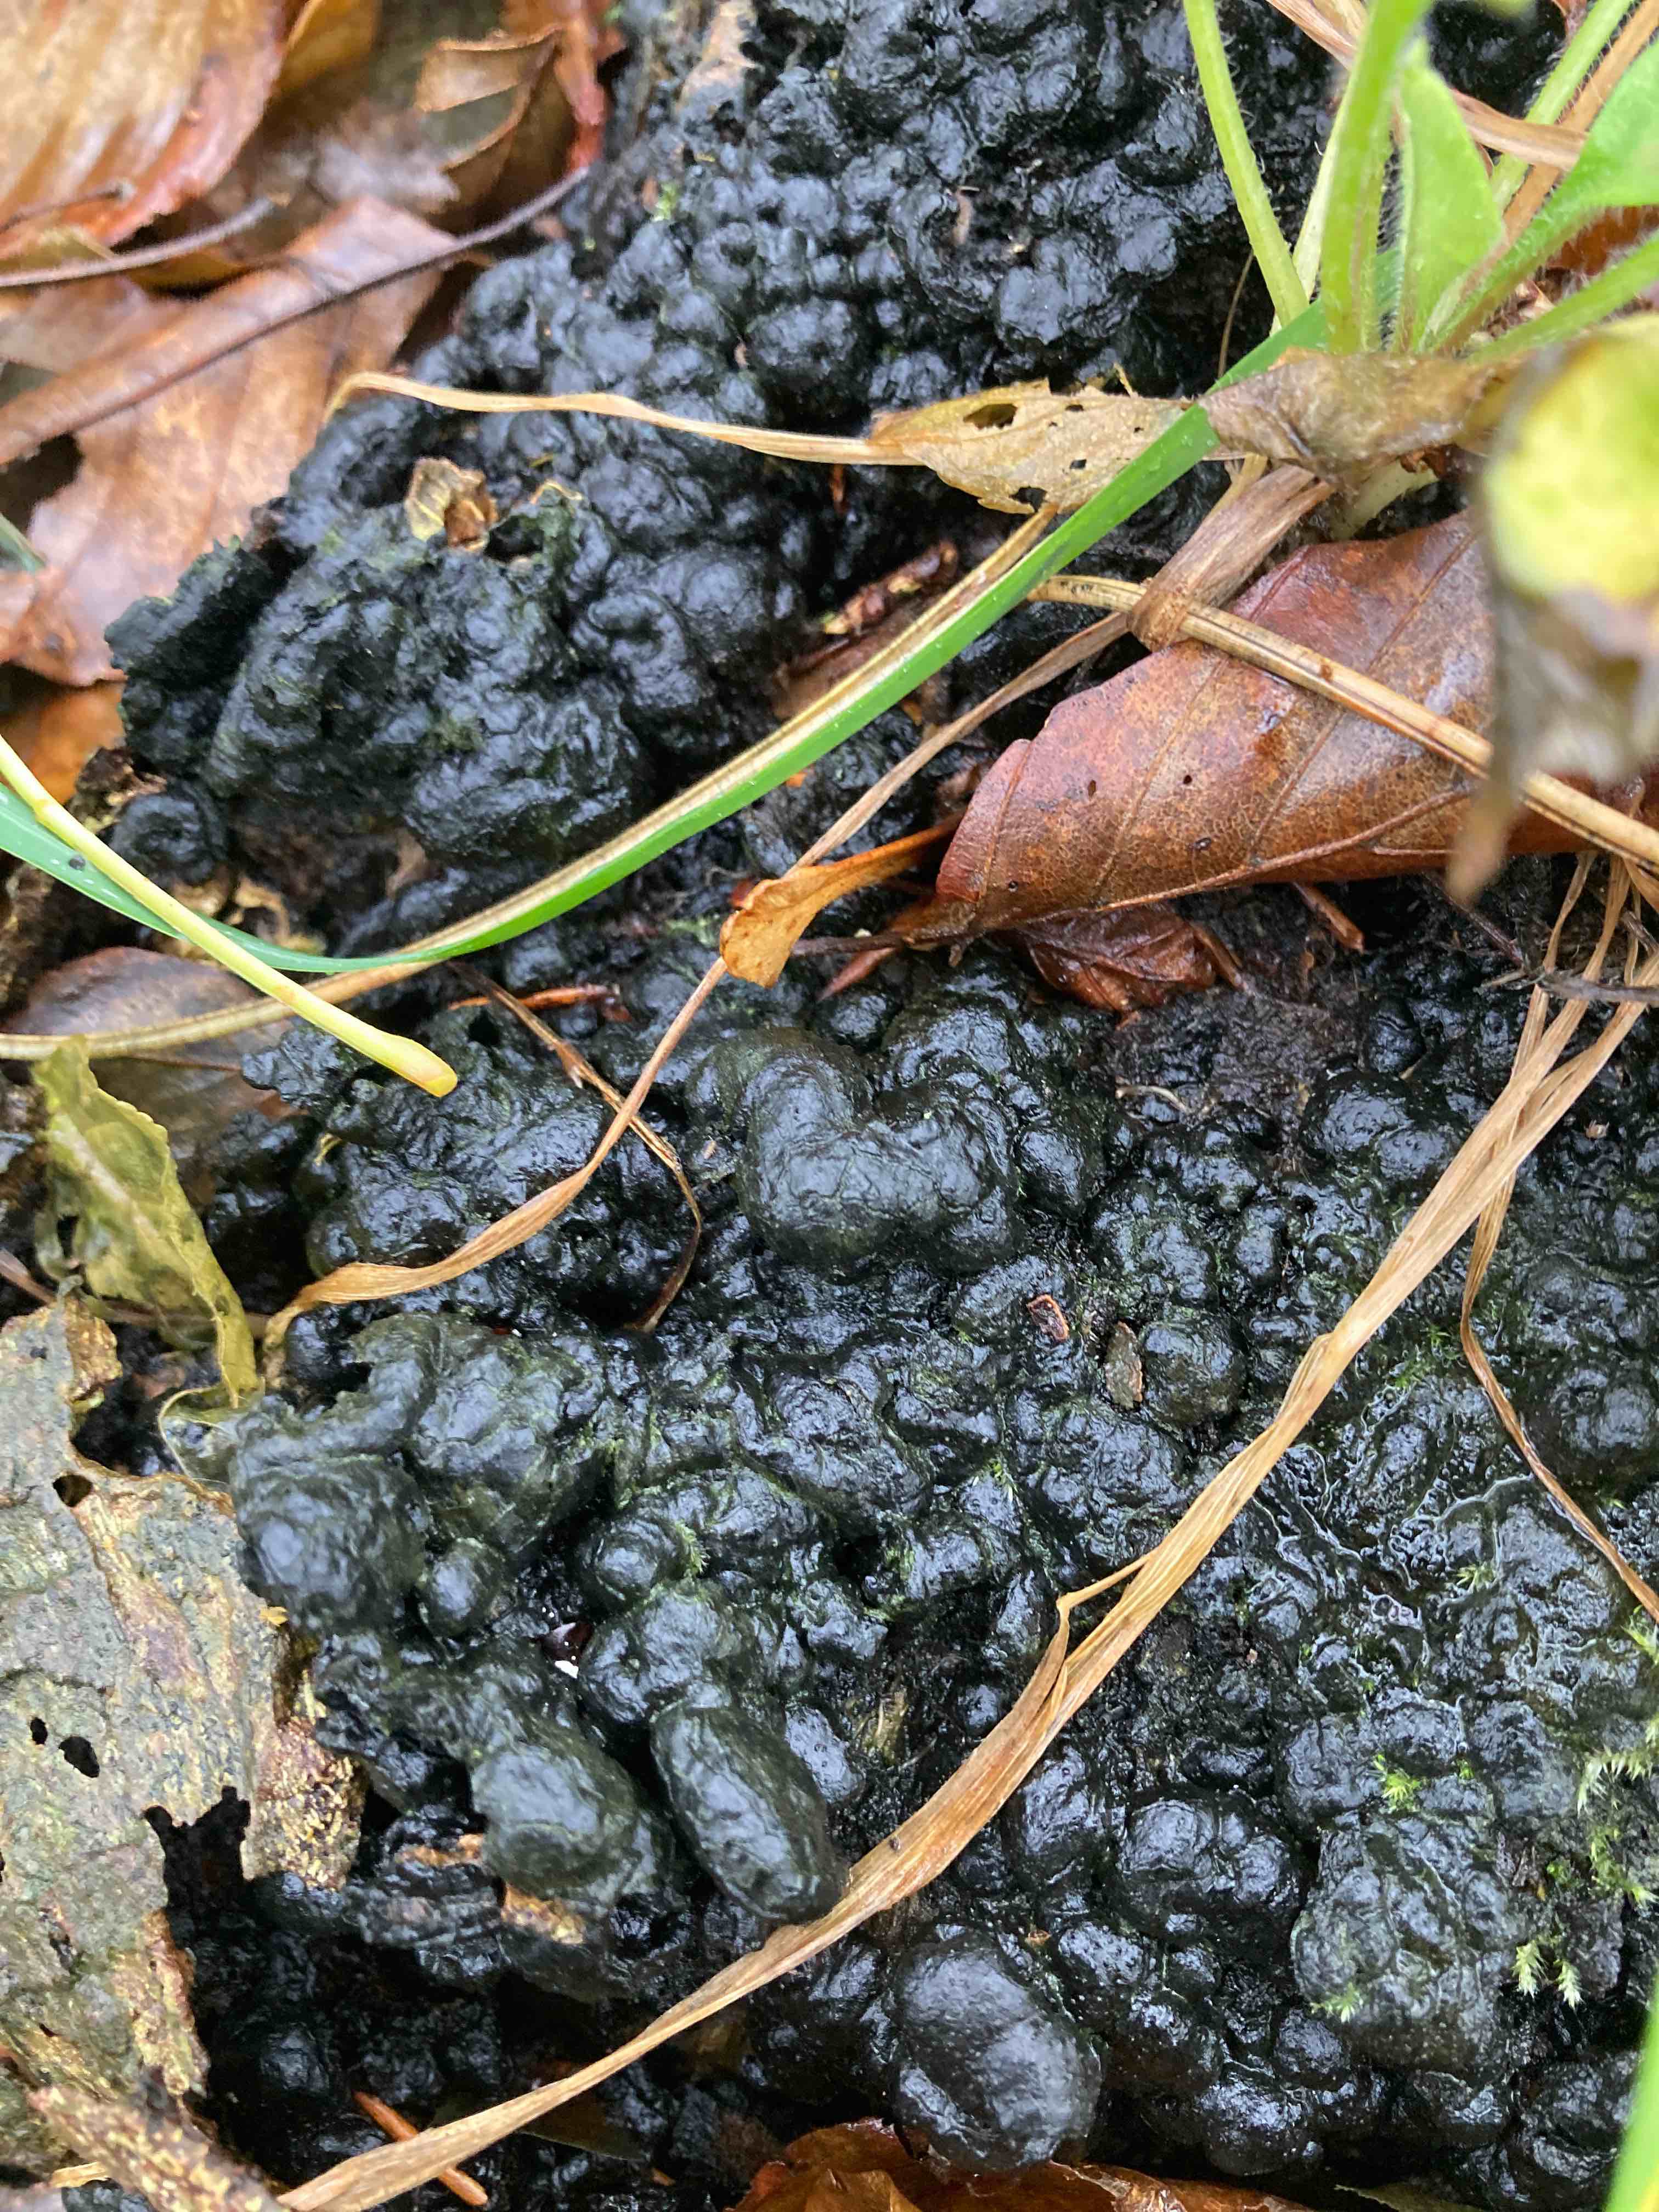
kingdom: Fungi
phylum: Ascomycota
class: Sordariomycetes
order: Xylariales
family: Xylariaceae
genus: Kretzschmaria
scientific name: Kretzschmaria deusta
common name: stor kulsvamp
